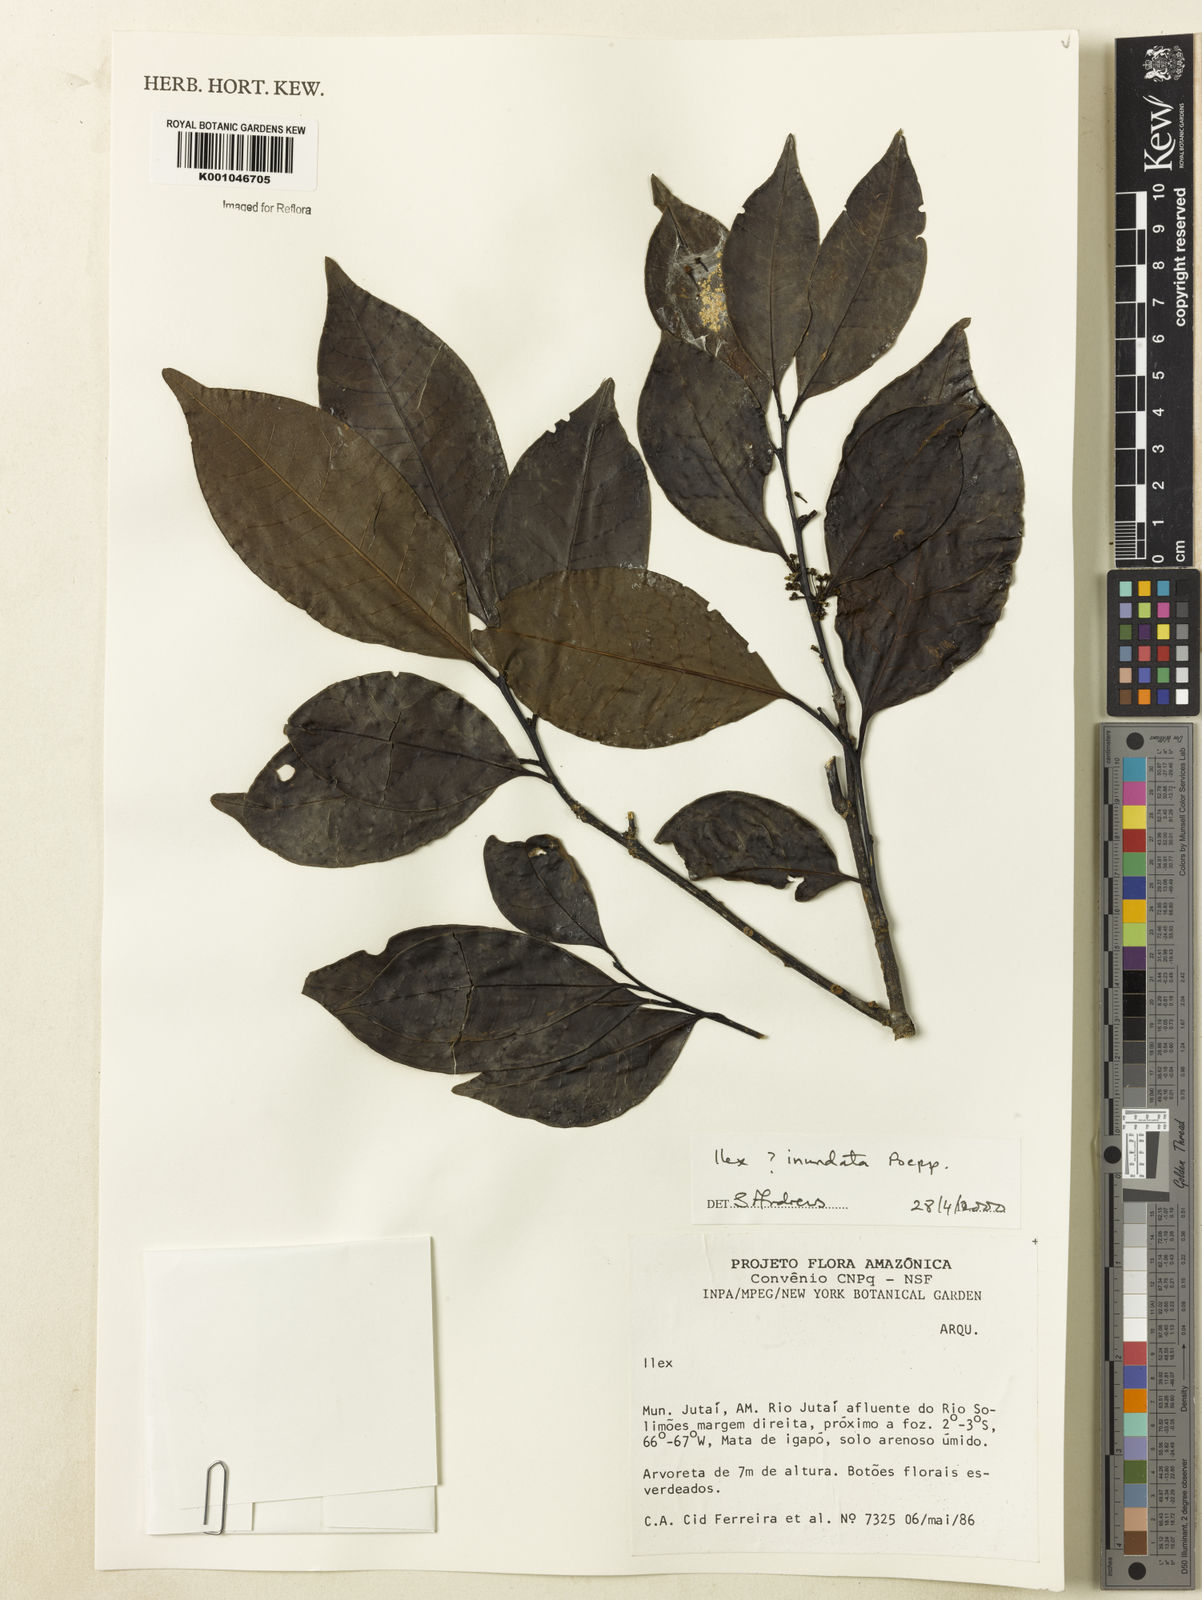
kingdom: Plantae
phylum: Tracheophyta
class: Magnoliopsida
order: Aquifoliales
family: Aquifoliaceae
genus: Ilex
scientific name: Ilex inundata
